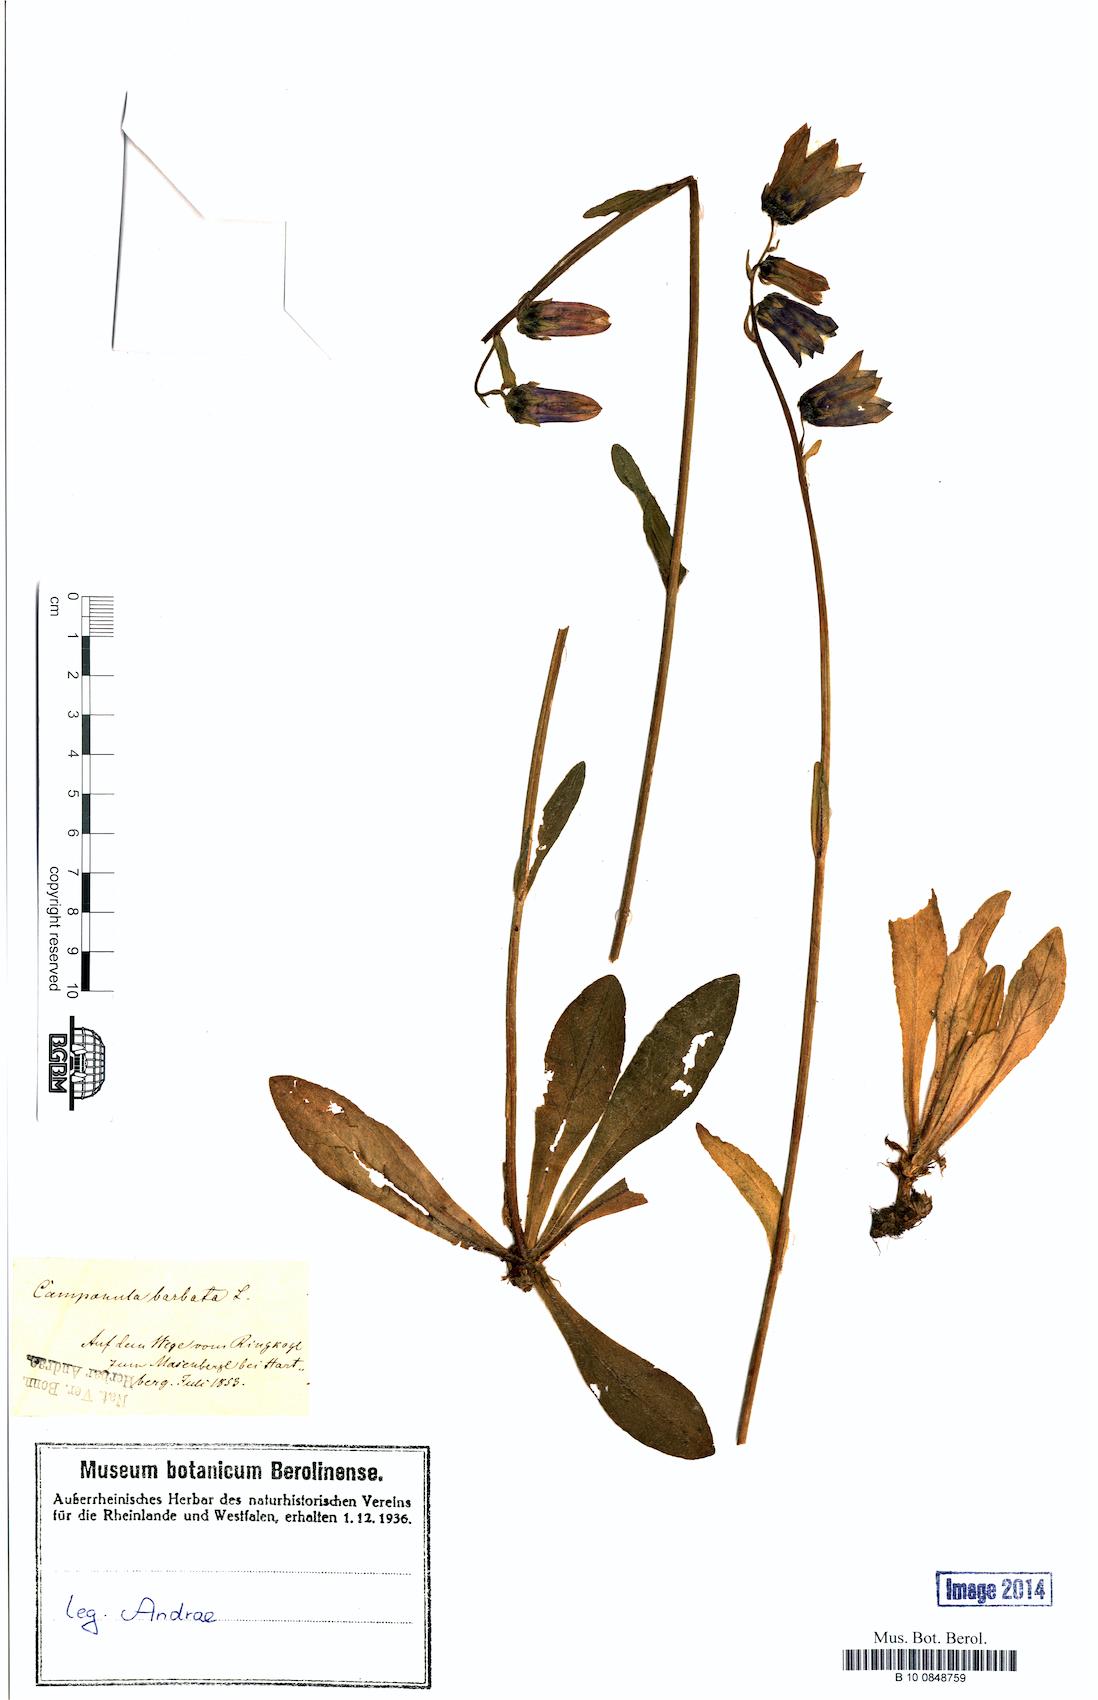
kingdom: Plantae
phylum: Tracheophyta
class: Magnoliopsida
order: Asterales
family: Campanulaceae
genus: Campanula
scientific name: Campanula barbata
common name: Bearded bellflower
